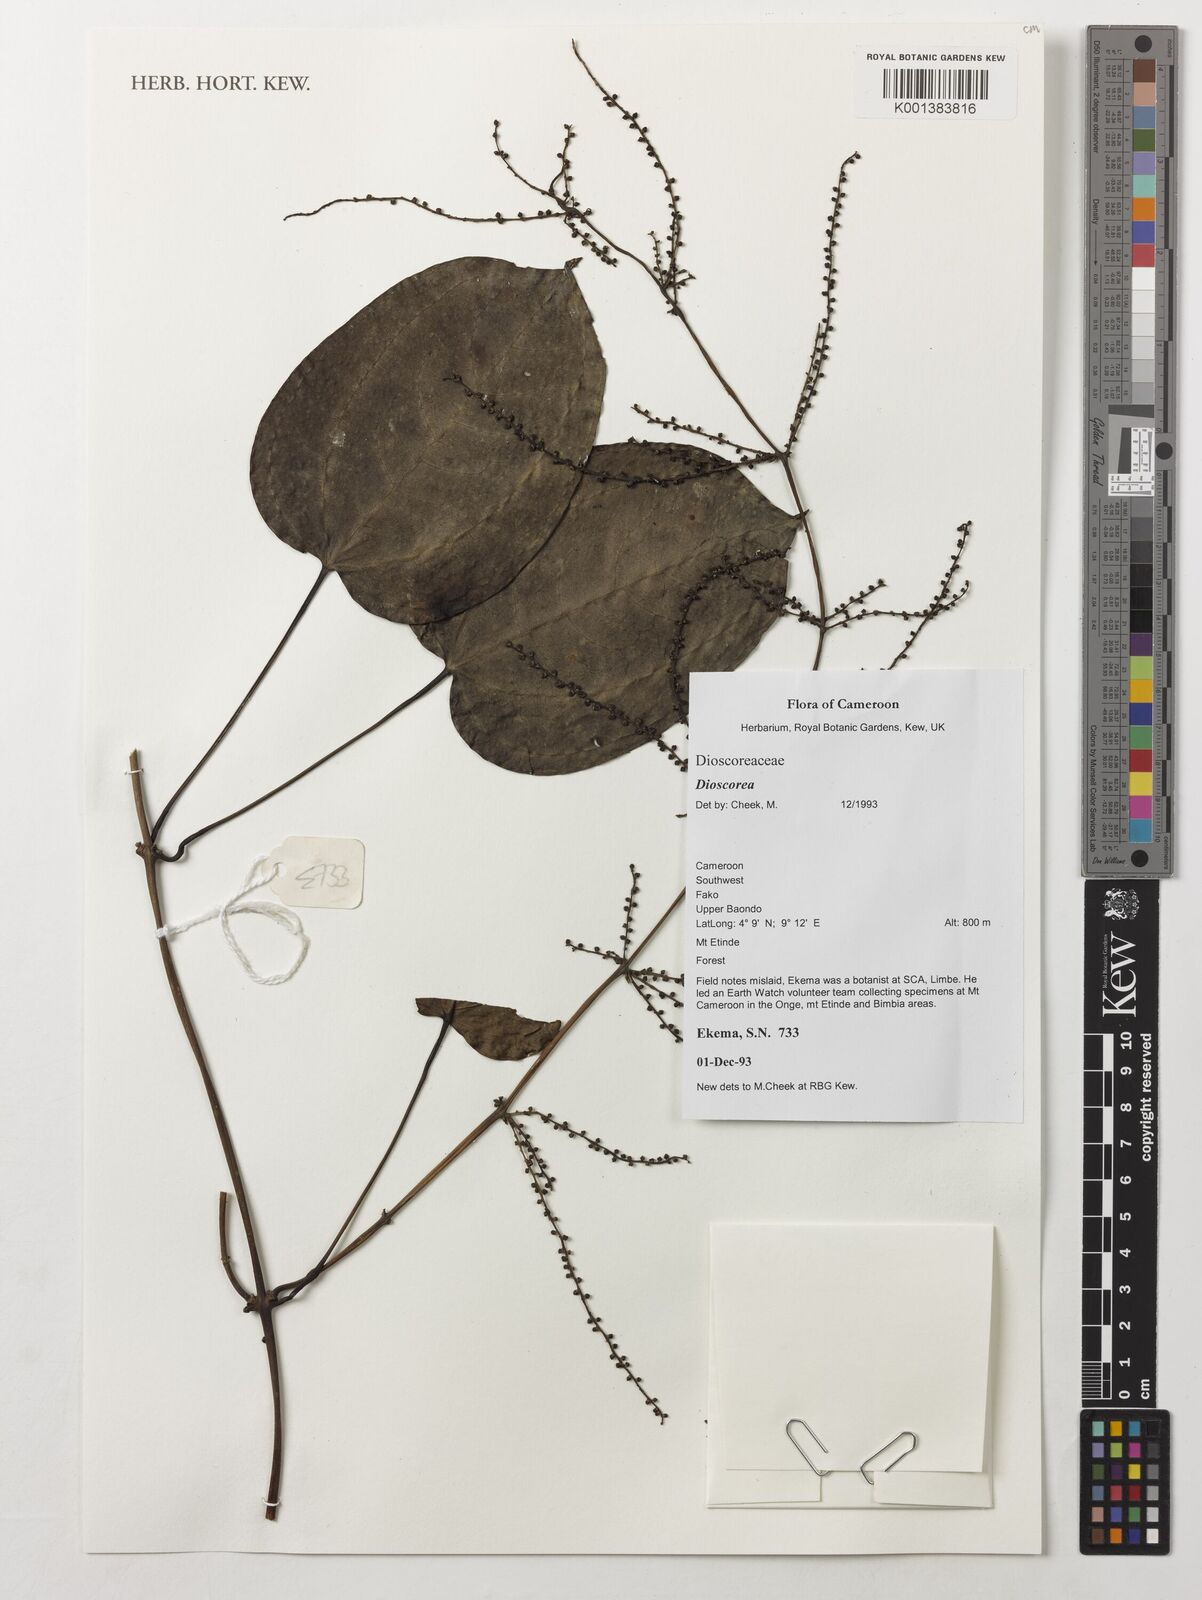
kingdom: Plantae
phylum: Tracheophyta
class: Liliopsida
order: Dioscoreales
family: Dioscoreaceae
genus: Dioscorea
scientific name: Dioscorea
